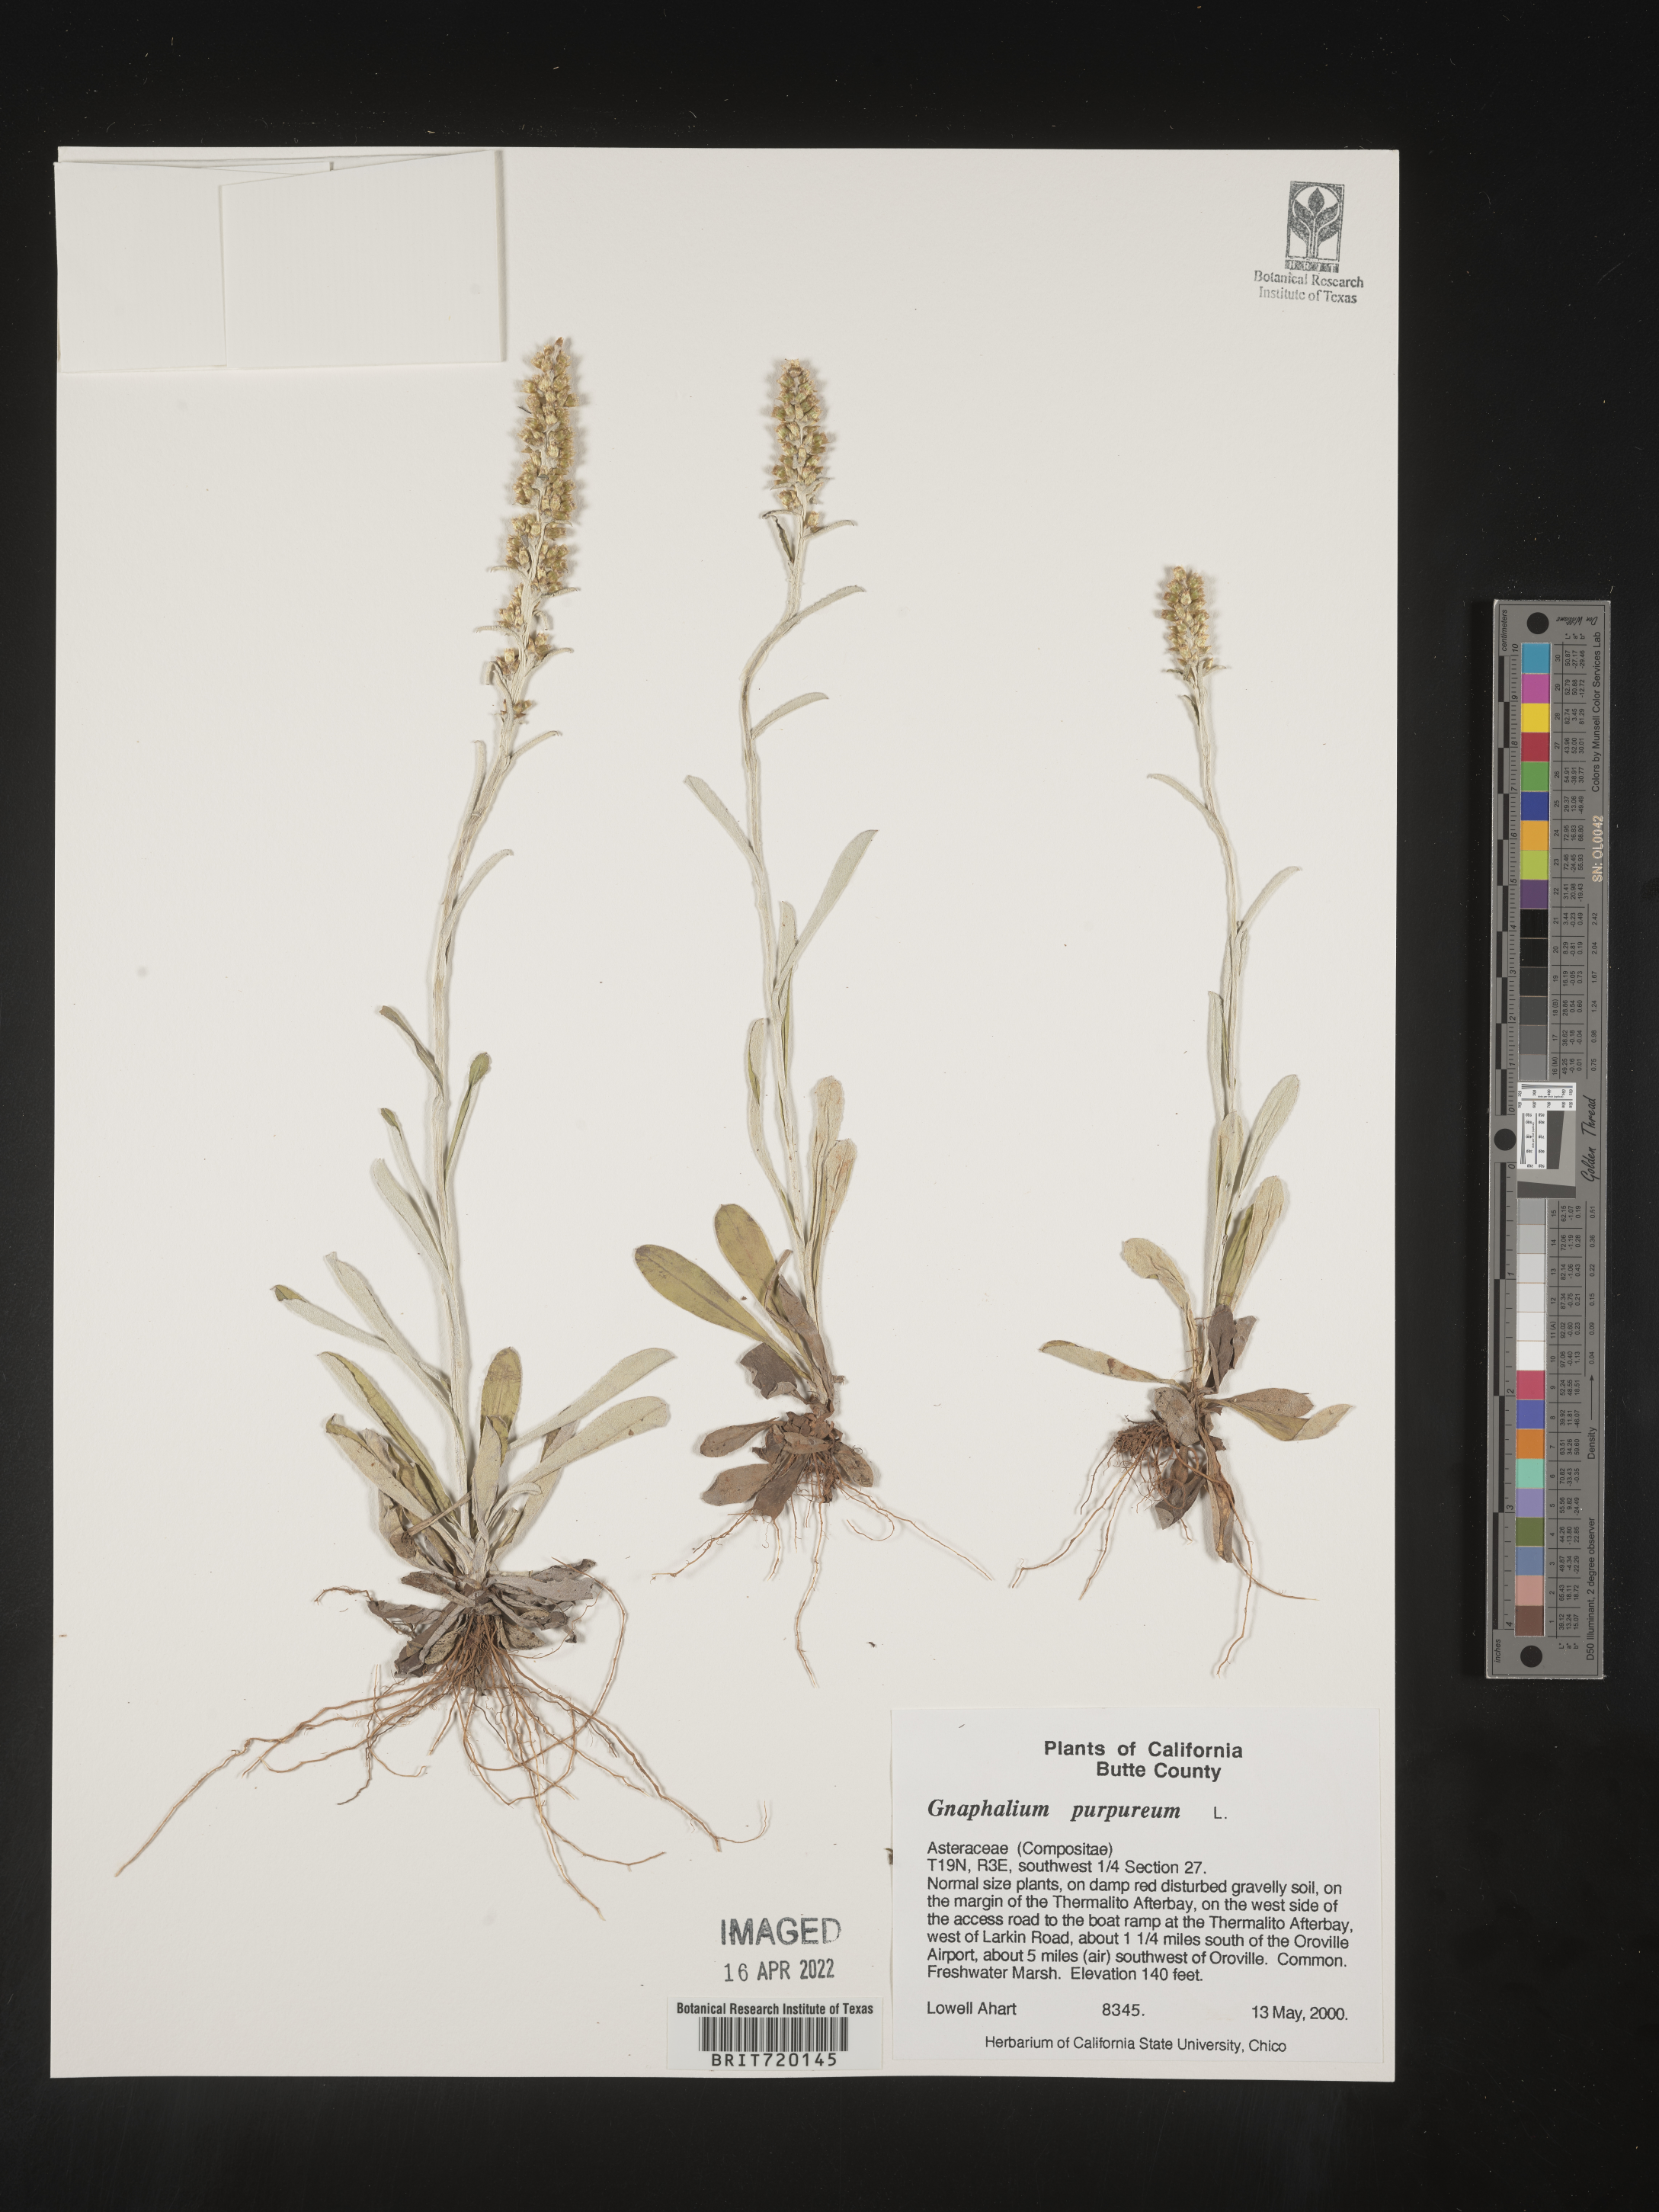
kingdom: Plantae
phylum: Tracheophyta
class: Magnoliopsida
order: Asterales
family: Asteraceae
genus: Gnaphalium
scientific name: Gnaphalium palustre
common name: Western marsh cudweed
